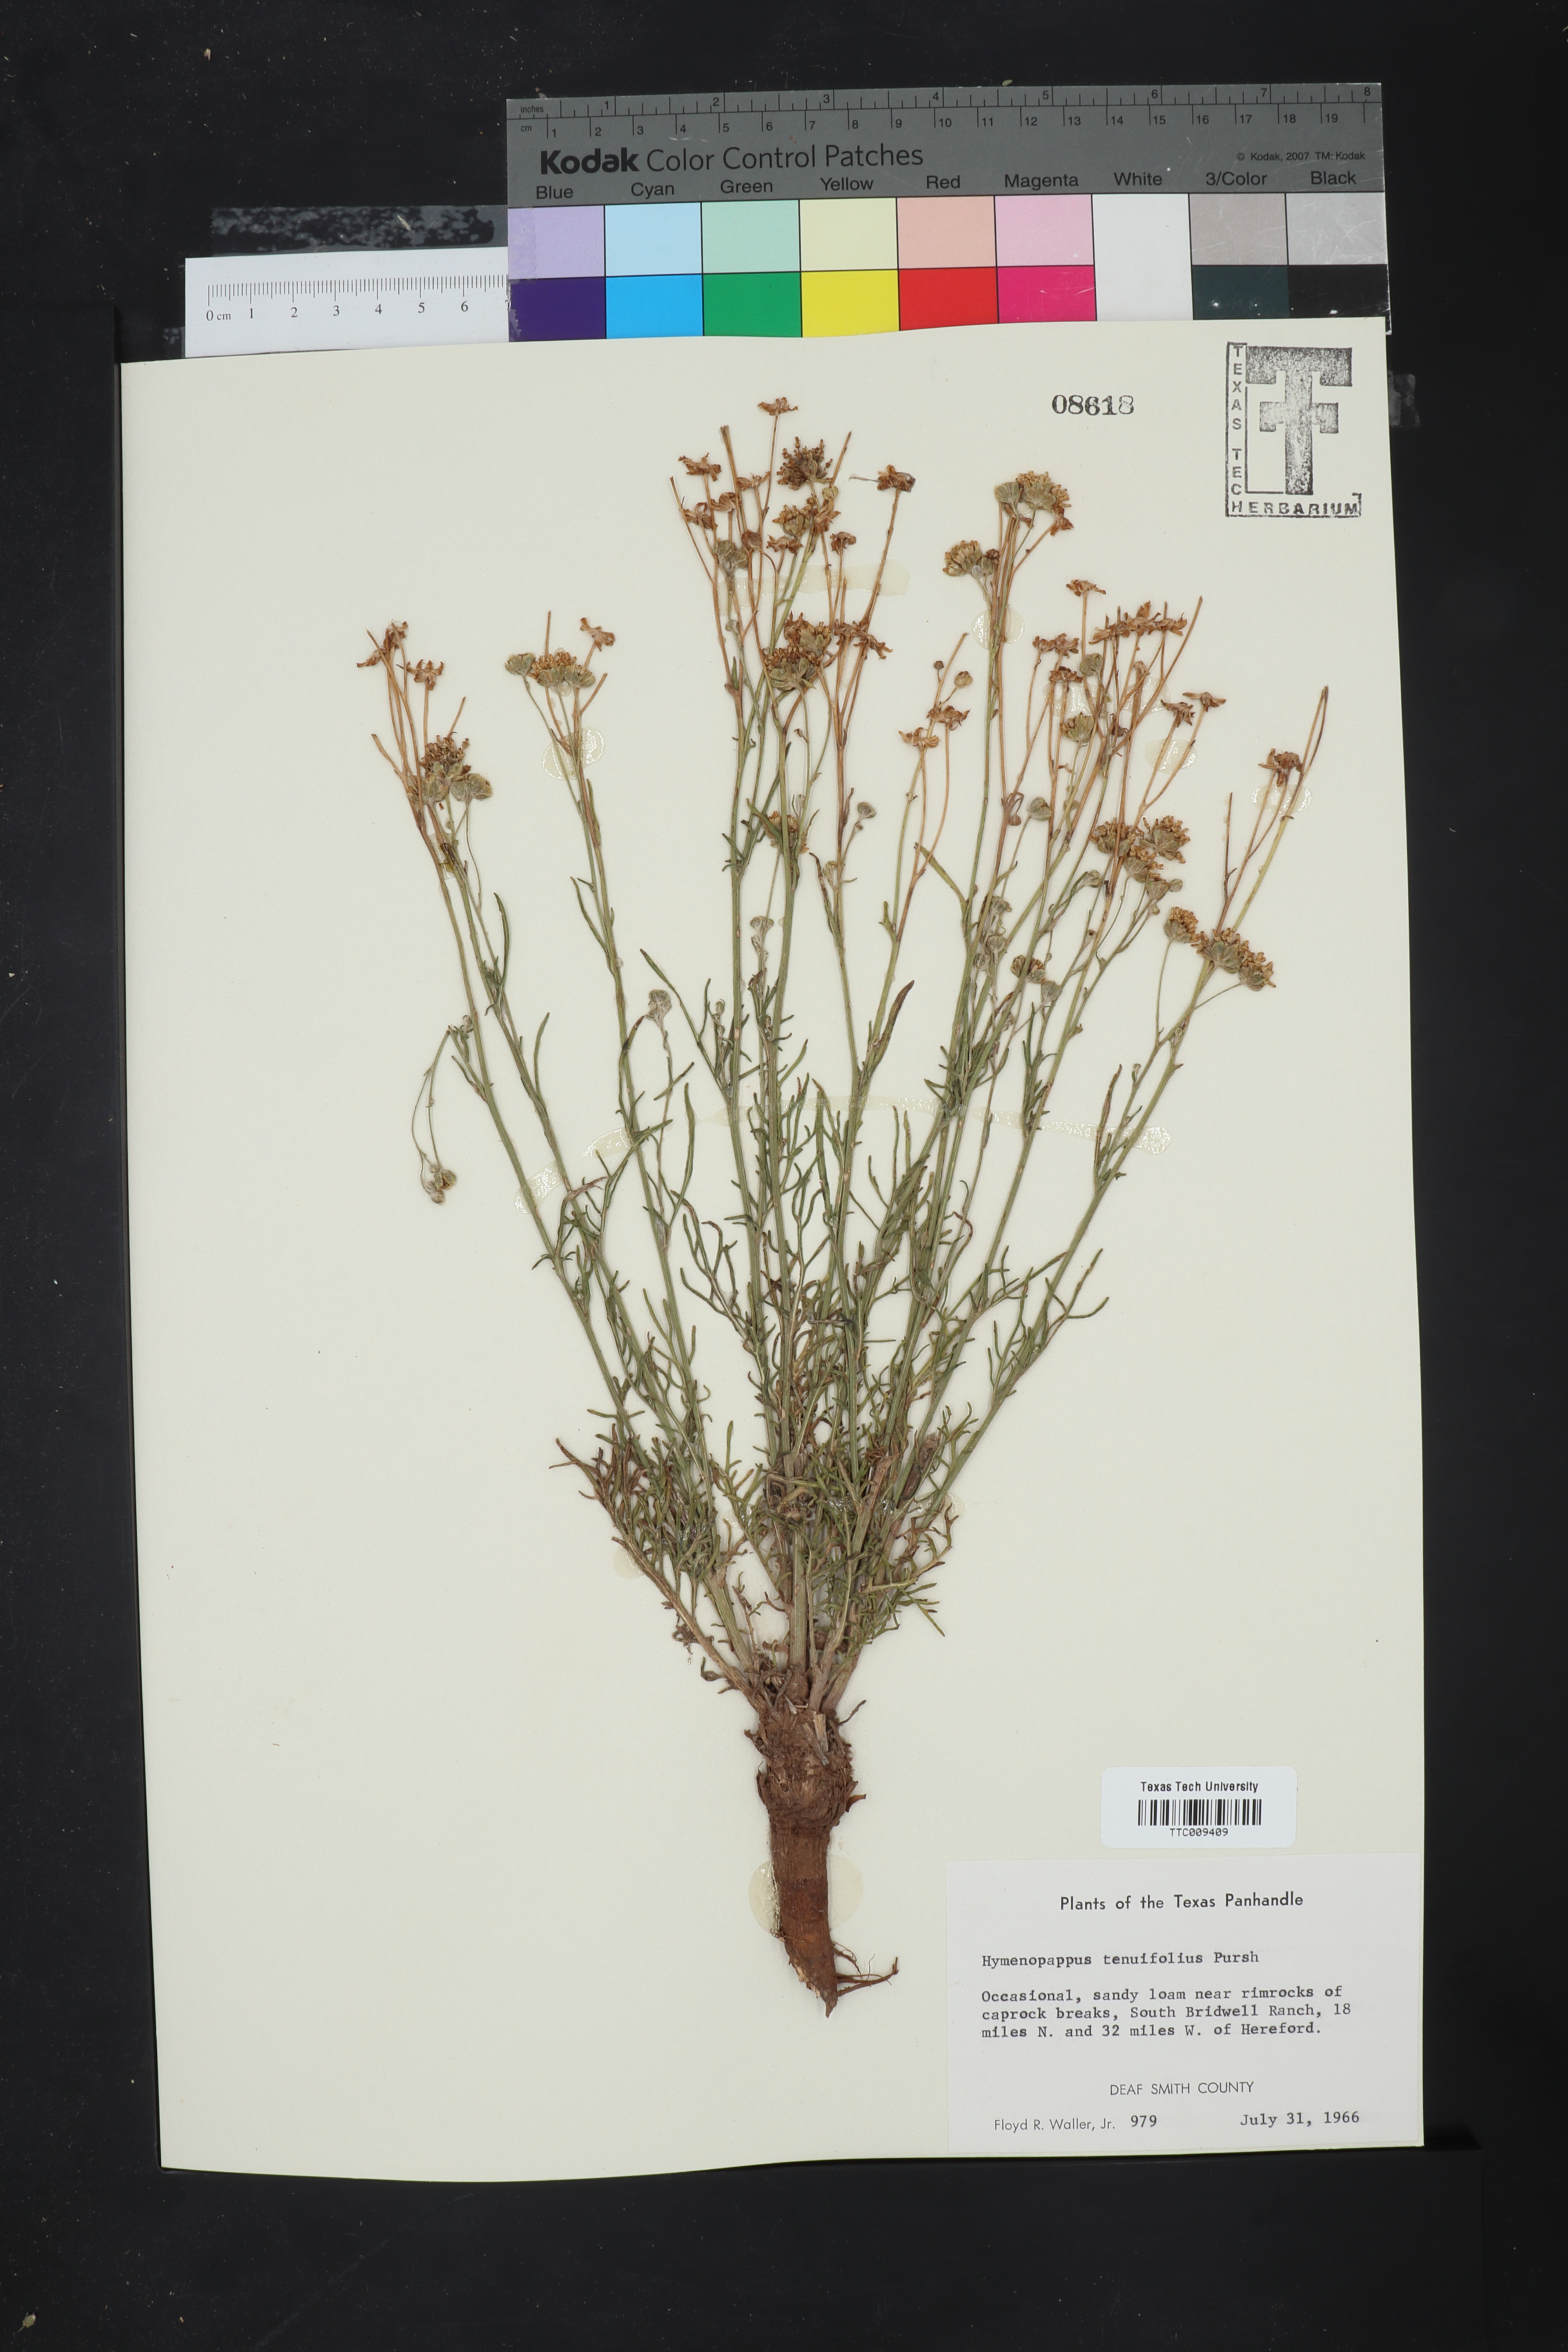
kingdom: Plantae
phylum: Tracheophyta
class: Magnoliopsida
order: Asterales
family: Asteraceae
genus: Hymenopappus
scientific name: Hymenopappus tenuifolius
